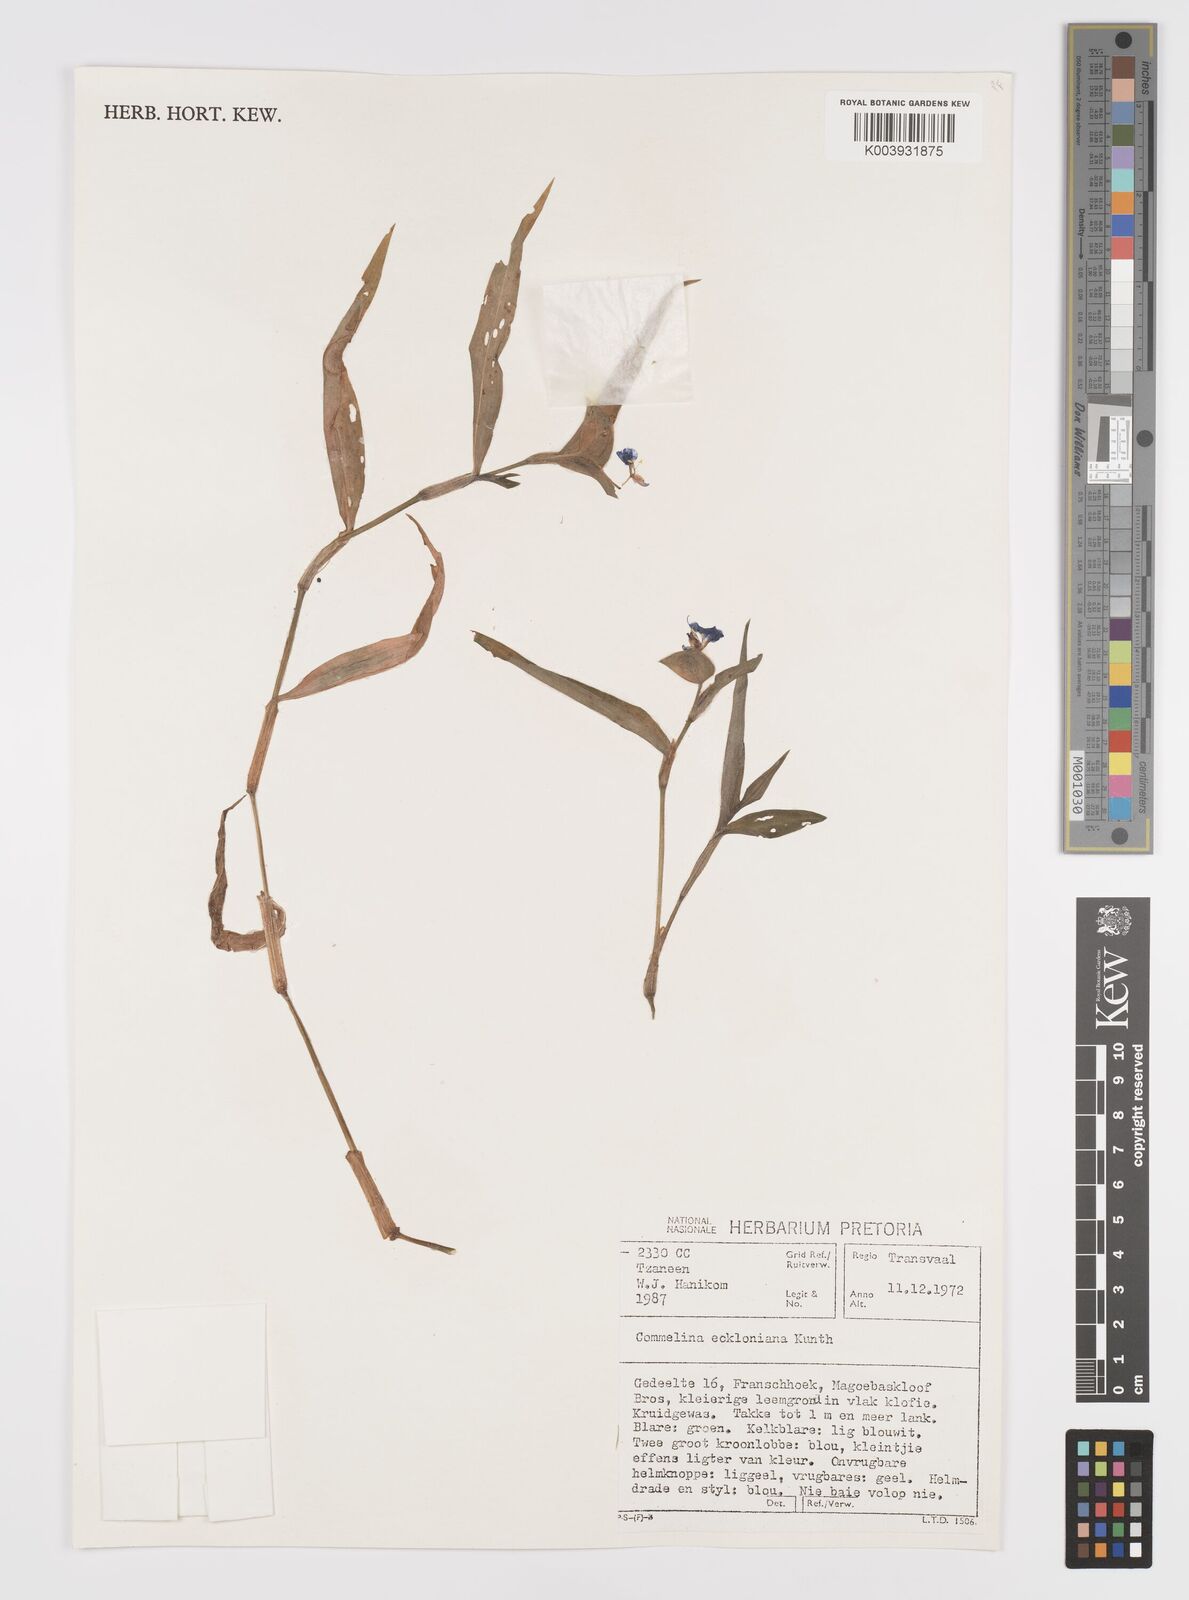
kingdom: Plantae
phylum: Tracheophyta
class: Liliopsida
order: Commelinales
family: Commelinaceae
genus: Commelina
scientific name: Commelina eckloniana
